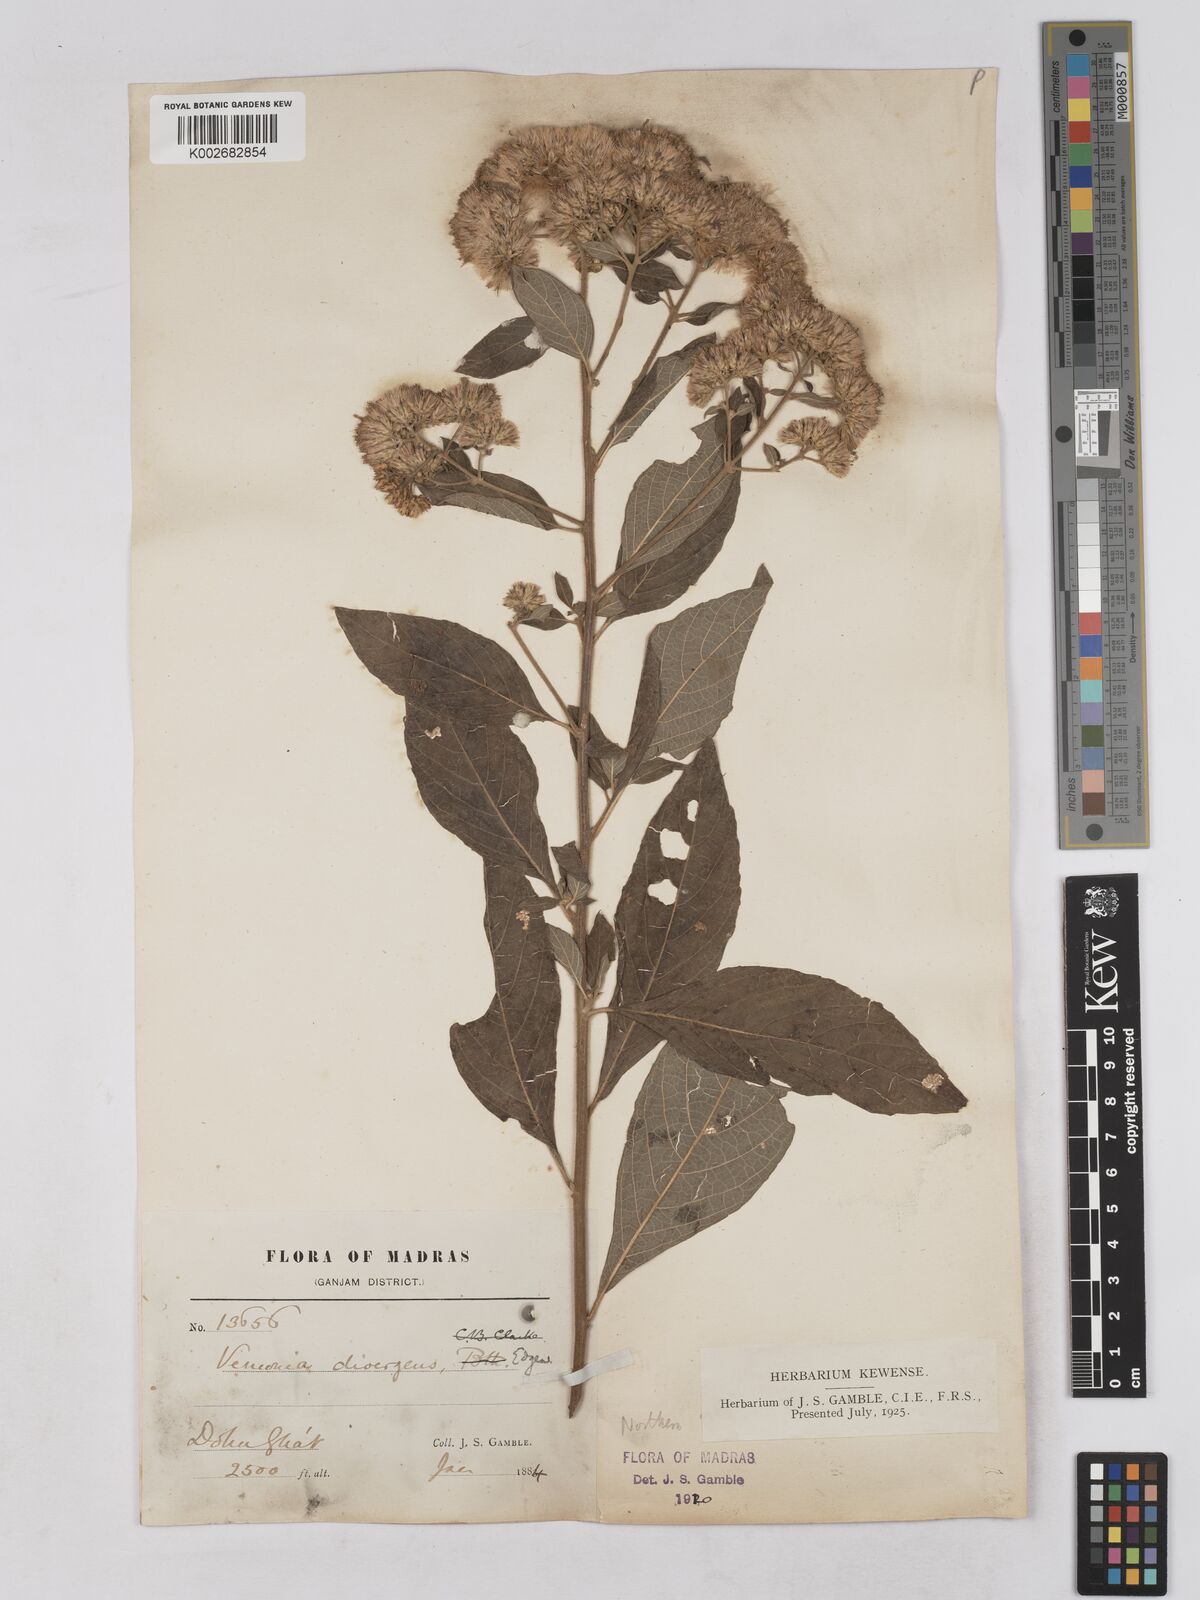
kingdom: Plantae
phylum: Tracheophyta
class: Magnoliopsida
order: Asterales
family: Asteraceae
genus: Acilepis
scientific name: Acilepis divergens
